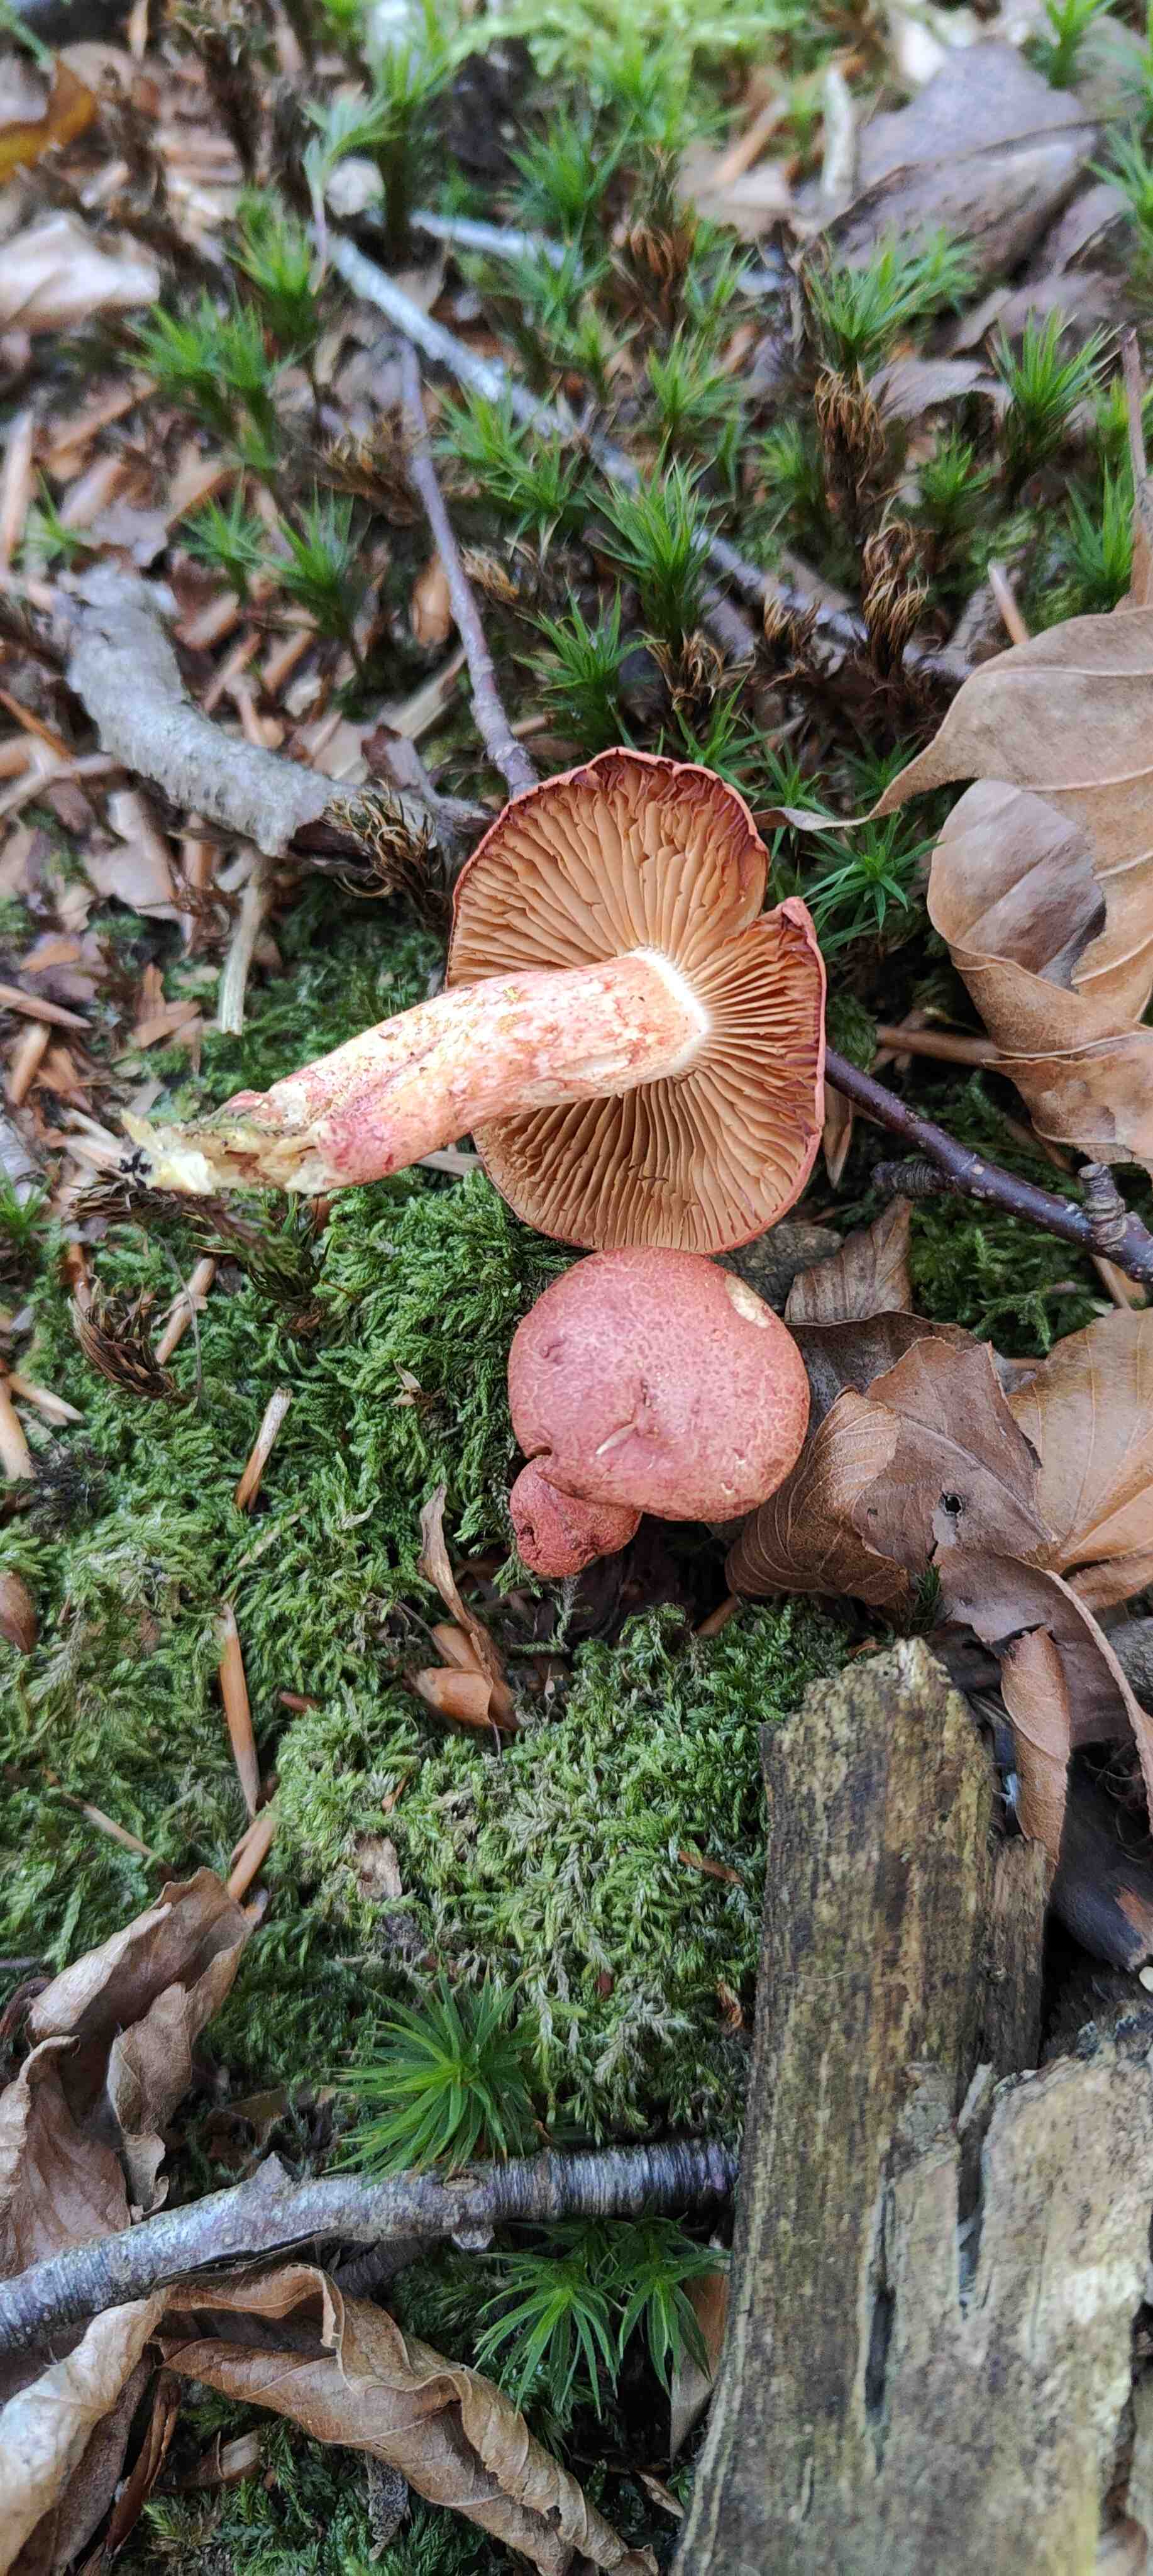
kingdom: Fungi
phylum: Basidiomycota
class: Agaricomycetes
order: Agaricales
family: Cortinariaceae
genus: Cortinarius
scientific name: Cortinarius bolaris
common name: cinnoberskællet slørhat
